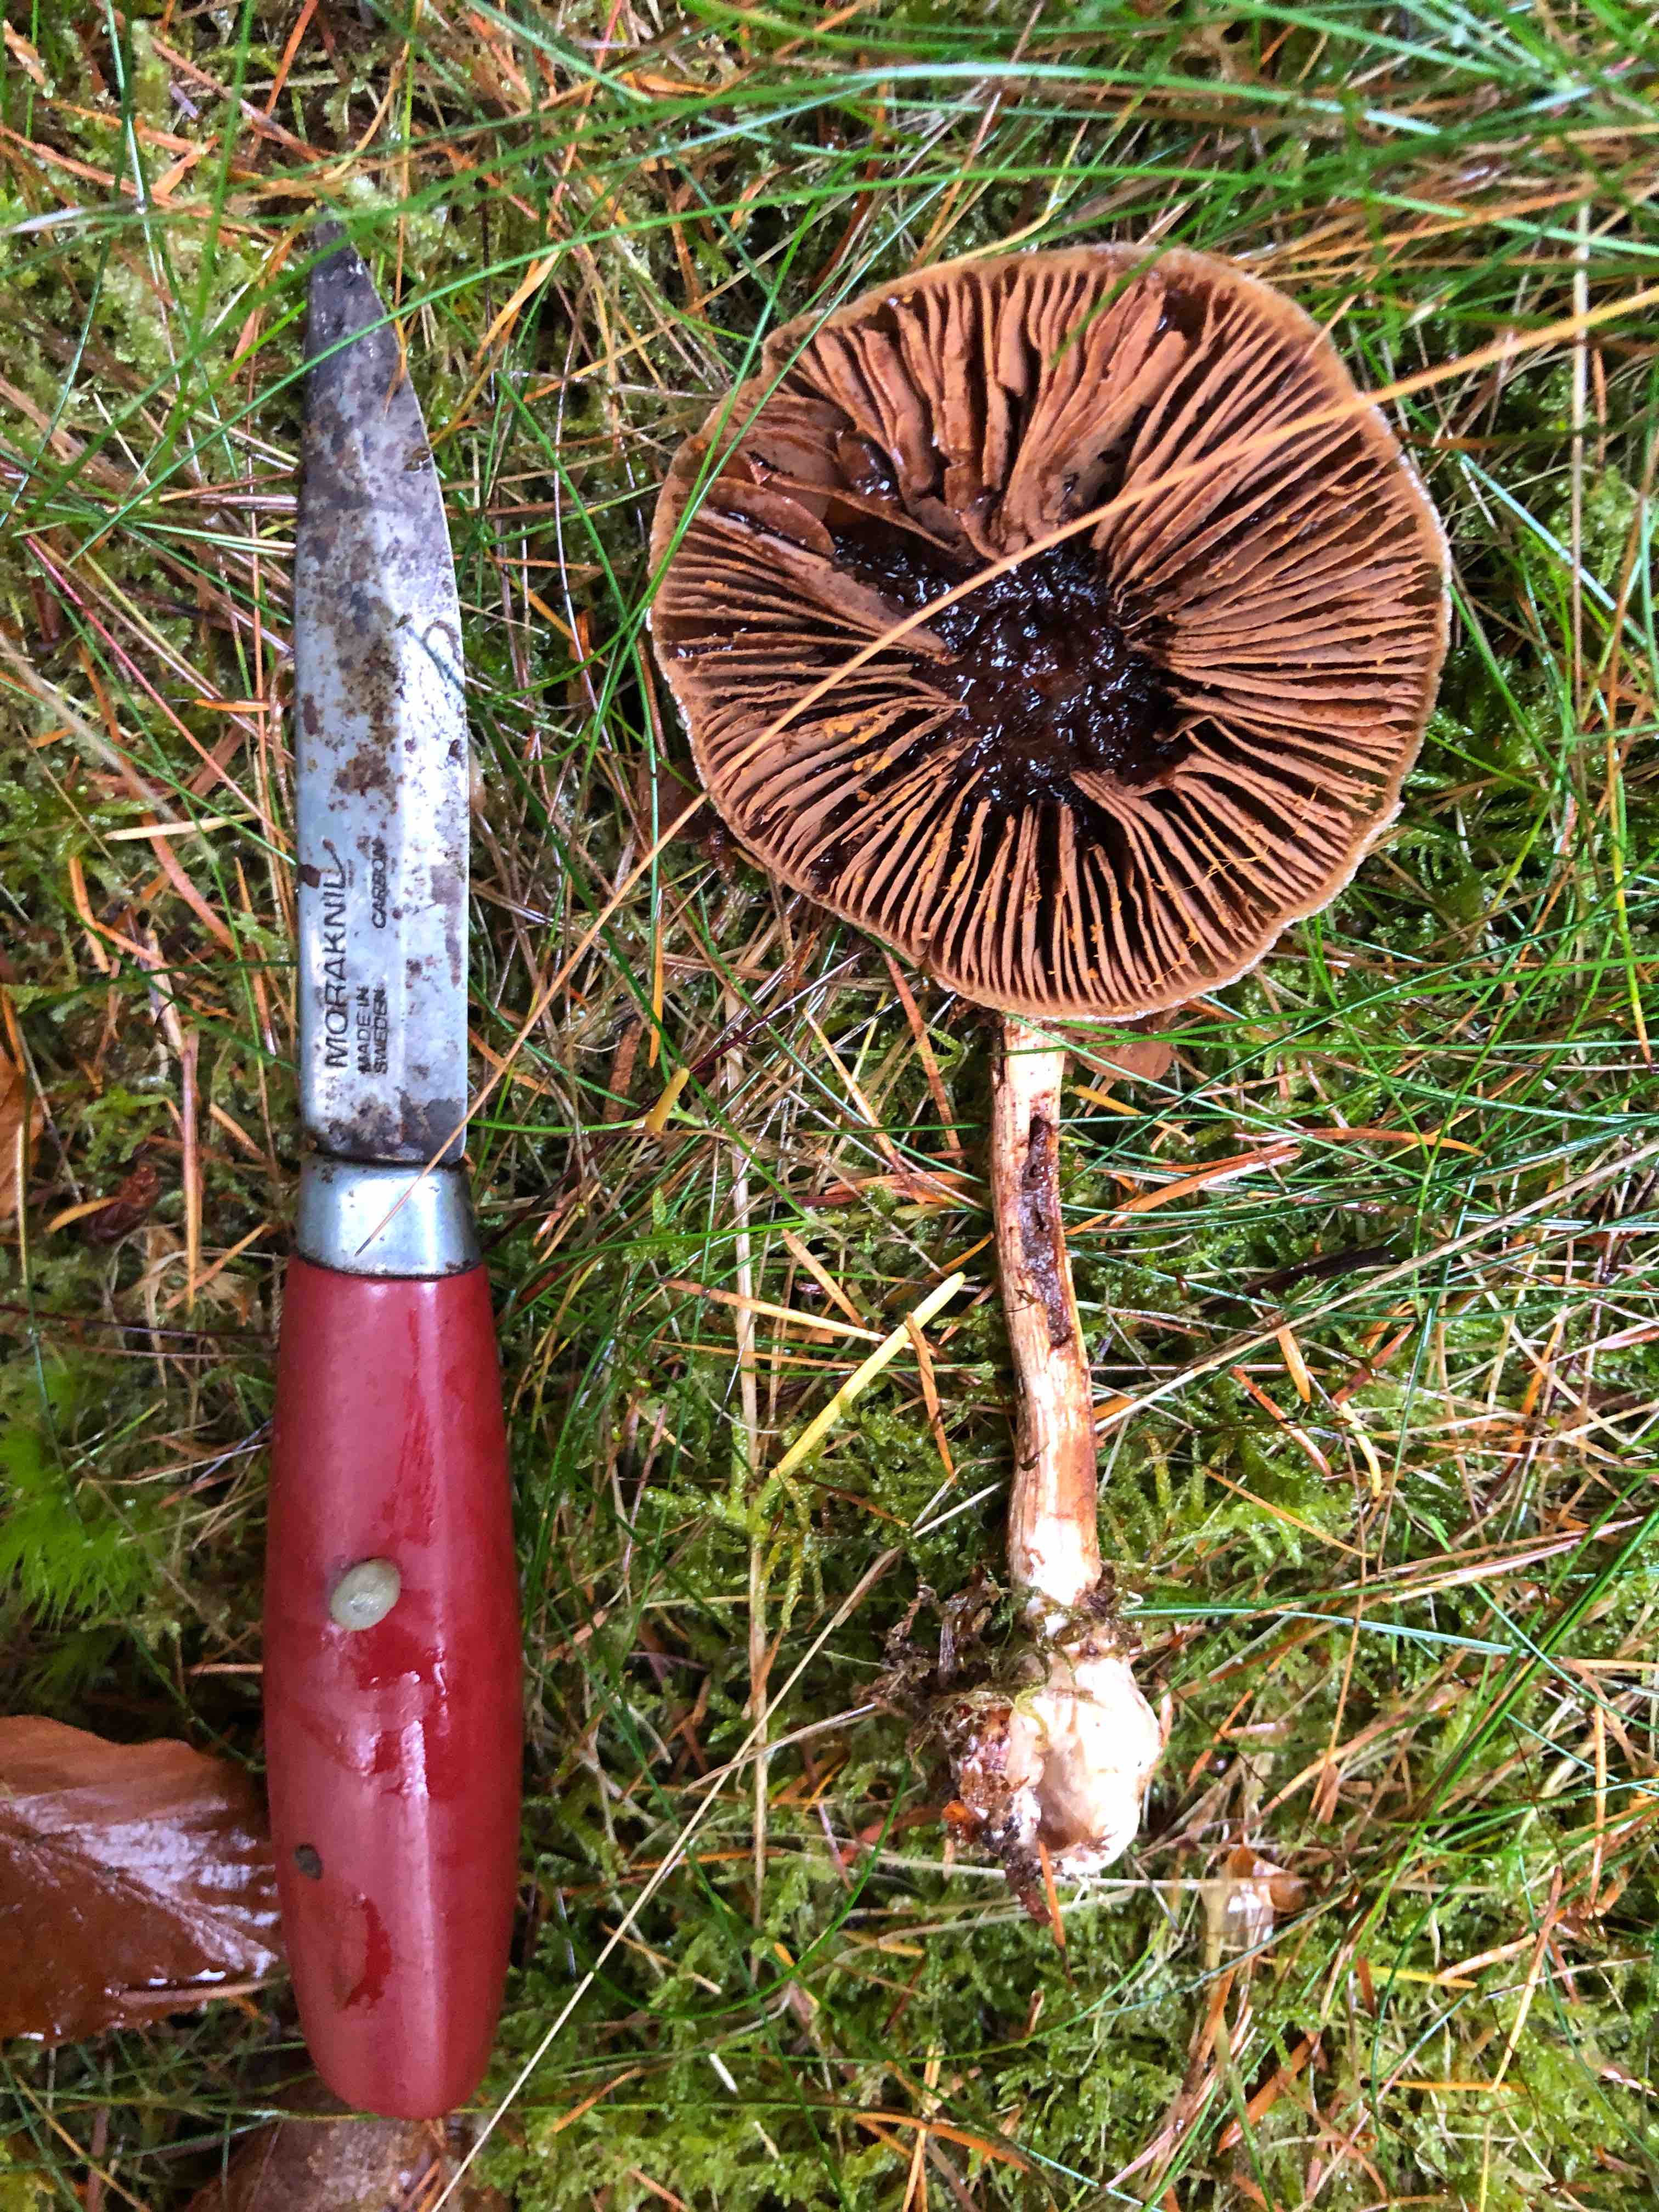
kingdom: Fungi
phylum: Basidiomycota
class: Agaricomycetes
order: Agaricales
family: Cortinariaceae
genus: Thaxterogaster
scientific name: Thaxterogaster scaurus
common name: sump-slørhat
